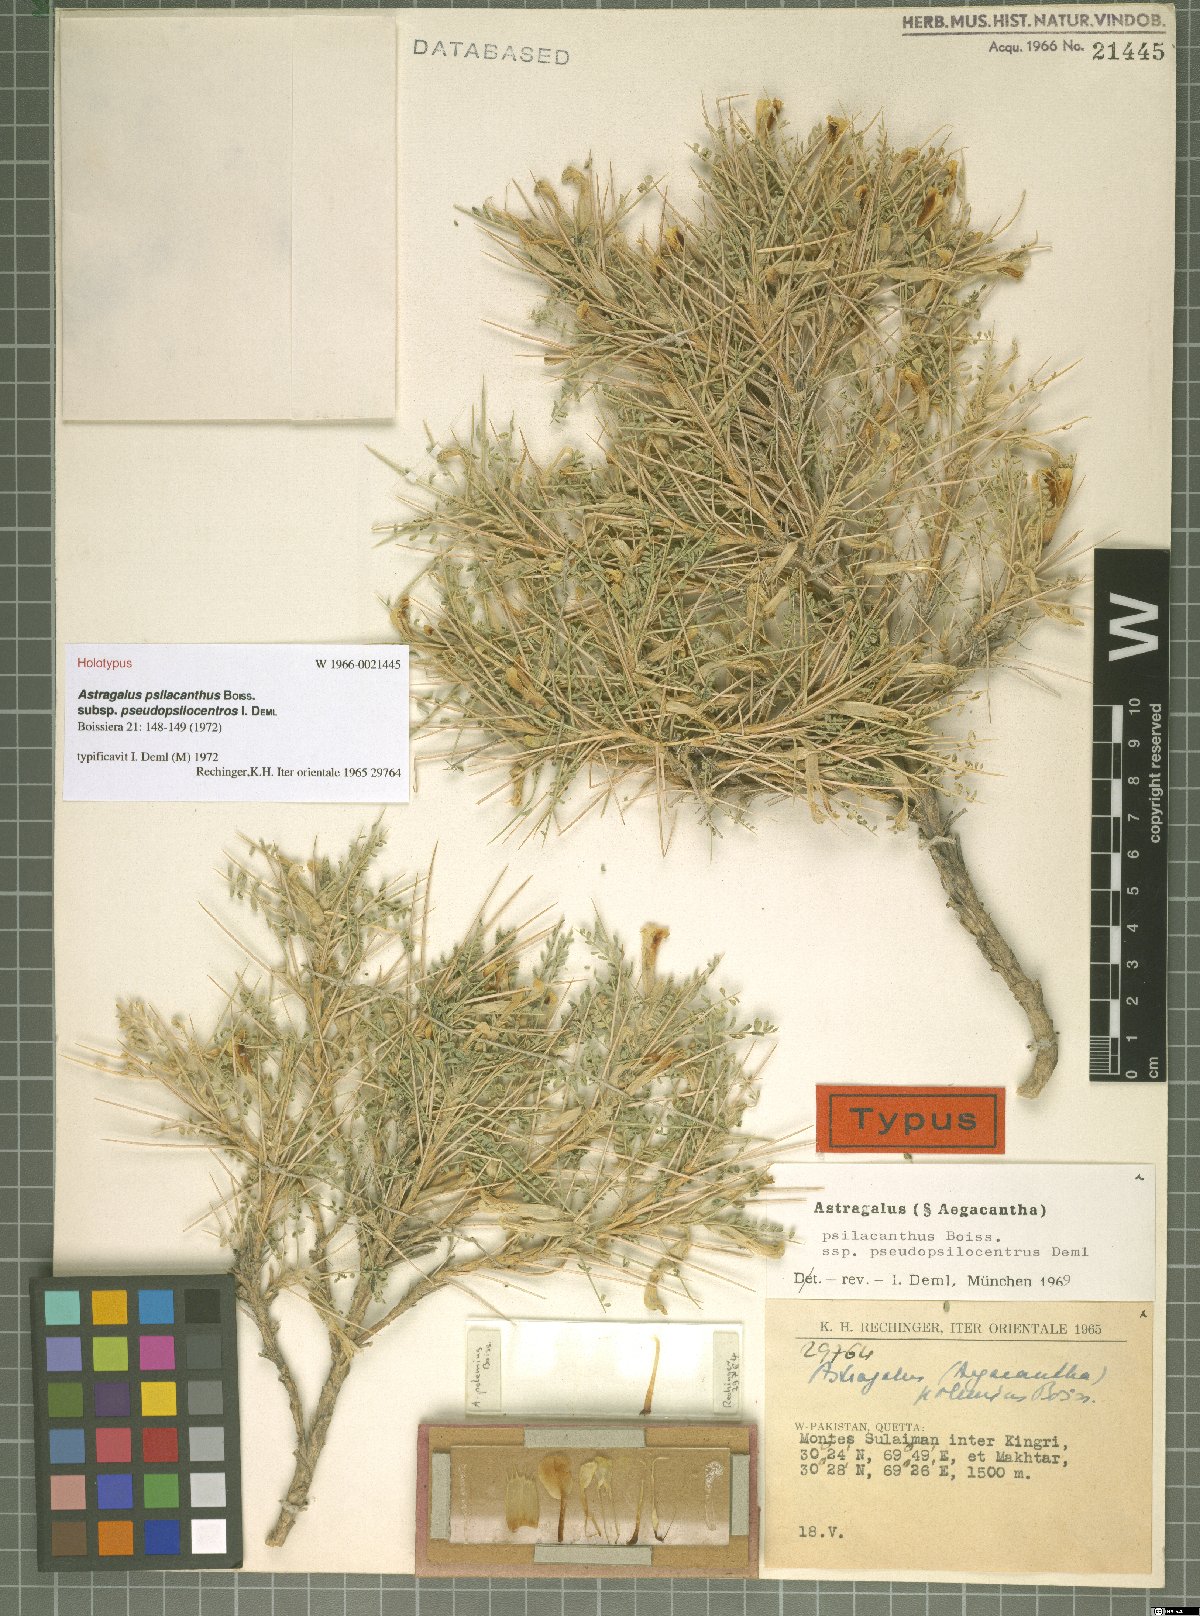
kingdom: Plantae
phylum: Tracheophyta
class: Magnoliopsida
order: Fabales
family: Fabaceae
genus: Astragalus
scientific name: Astragalus psilacanthus
